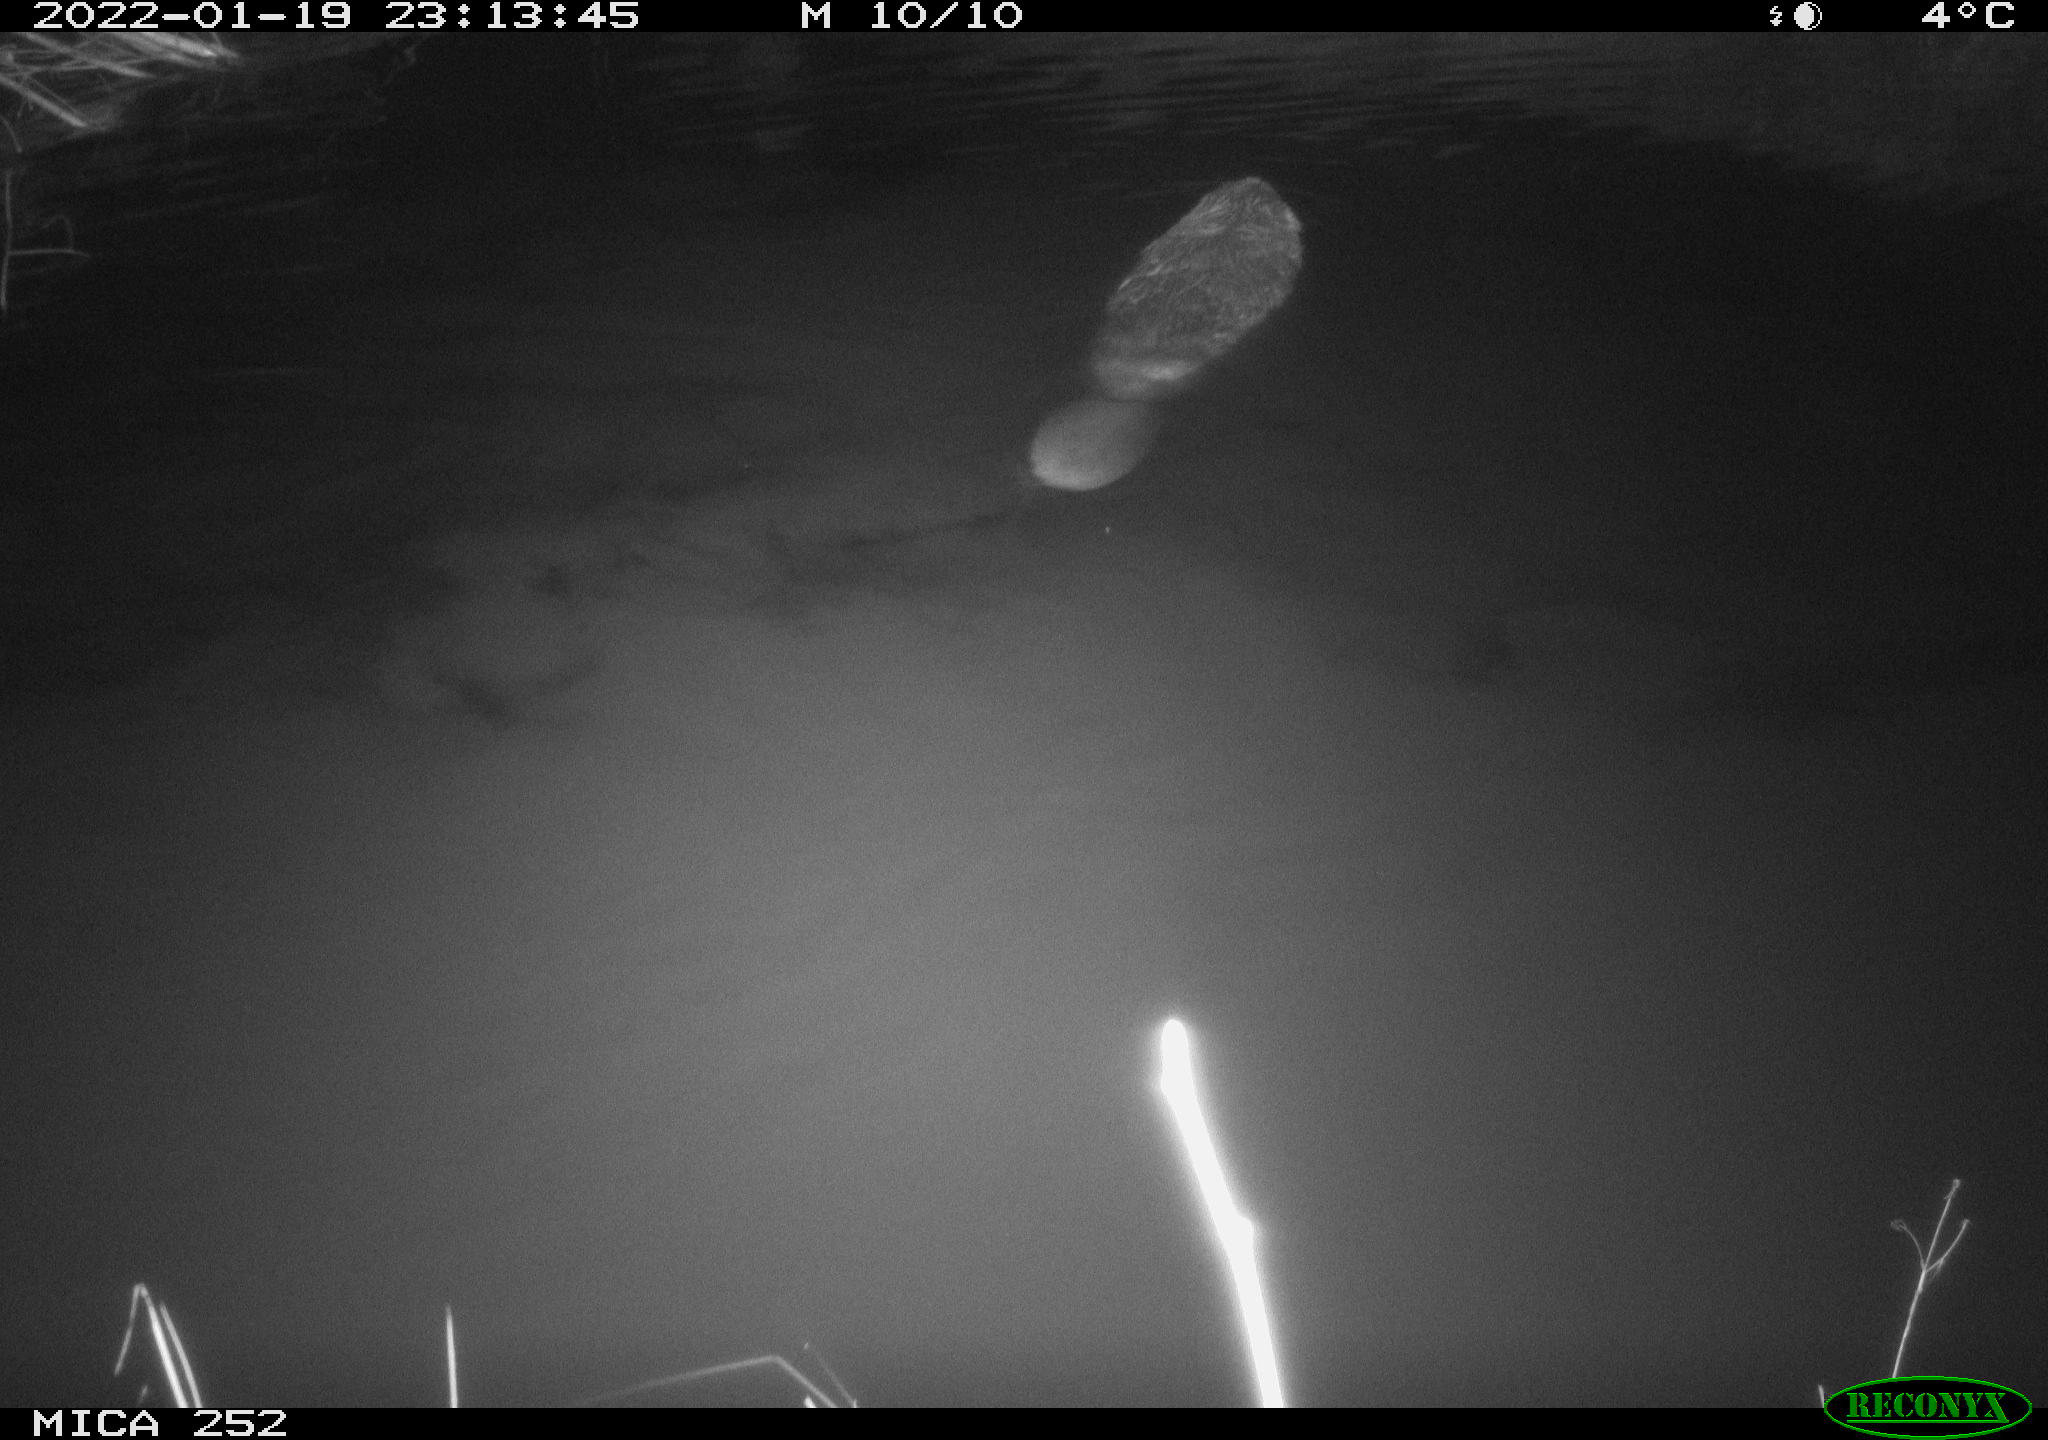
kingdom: Animalia
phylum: Chordata
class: Mammalia
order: Rodentia
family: Castoridae
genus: Castor
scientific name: Castor fiber
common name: Eurasian beaver
